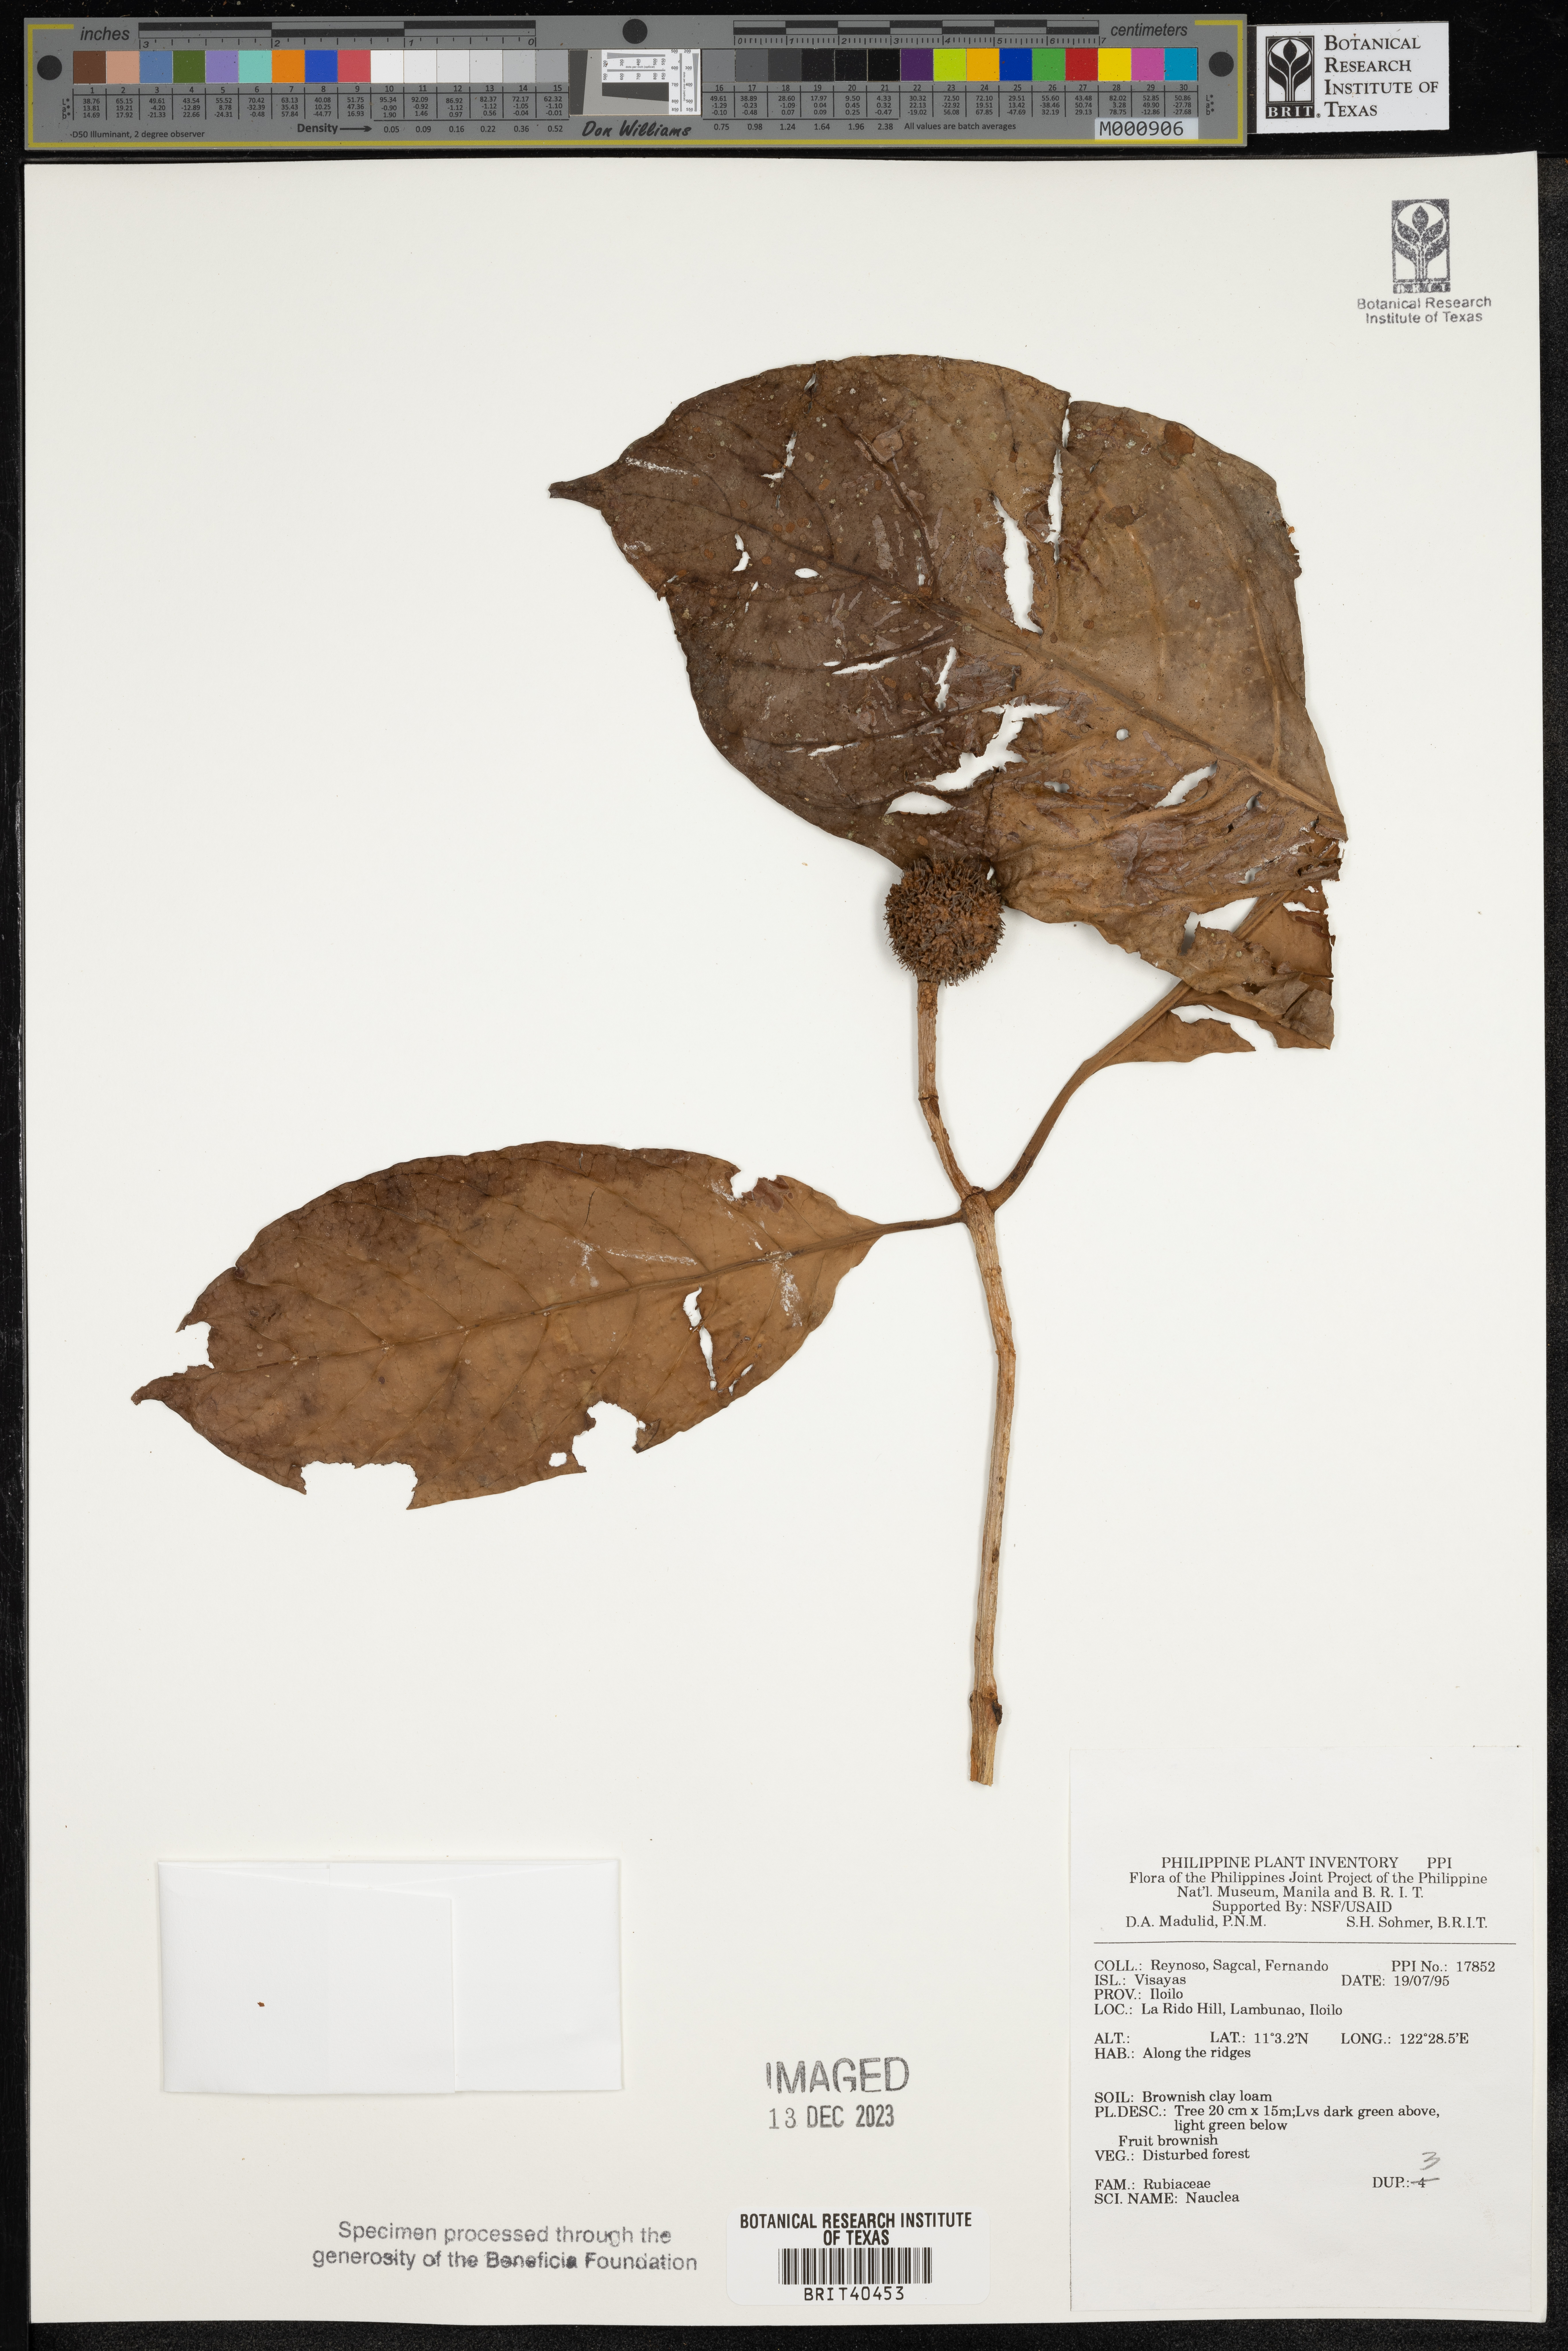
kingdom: Plantae
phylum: Tracheophyta
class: Magnoliopsida
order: Gentianales
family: Rubiaceae
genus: Nauclea
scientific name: Nauclea
